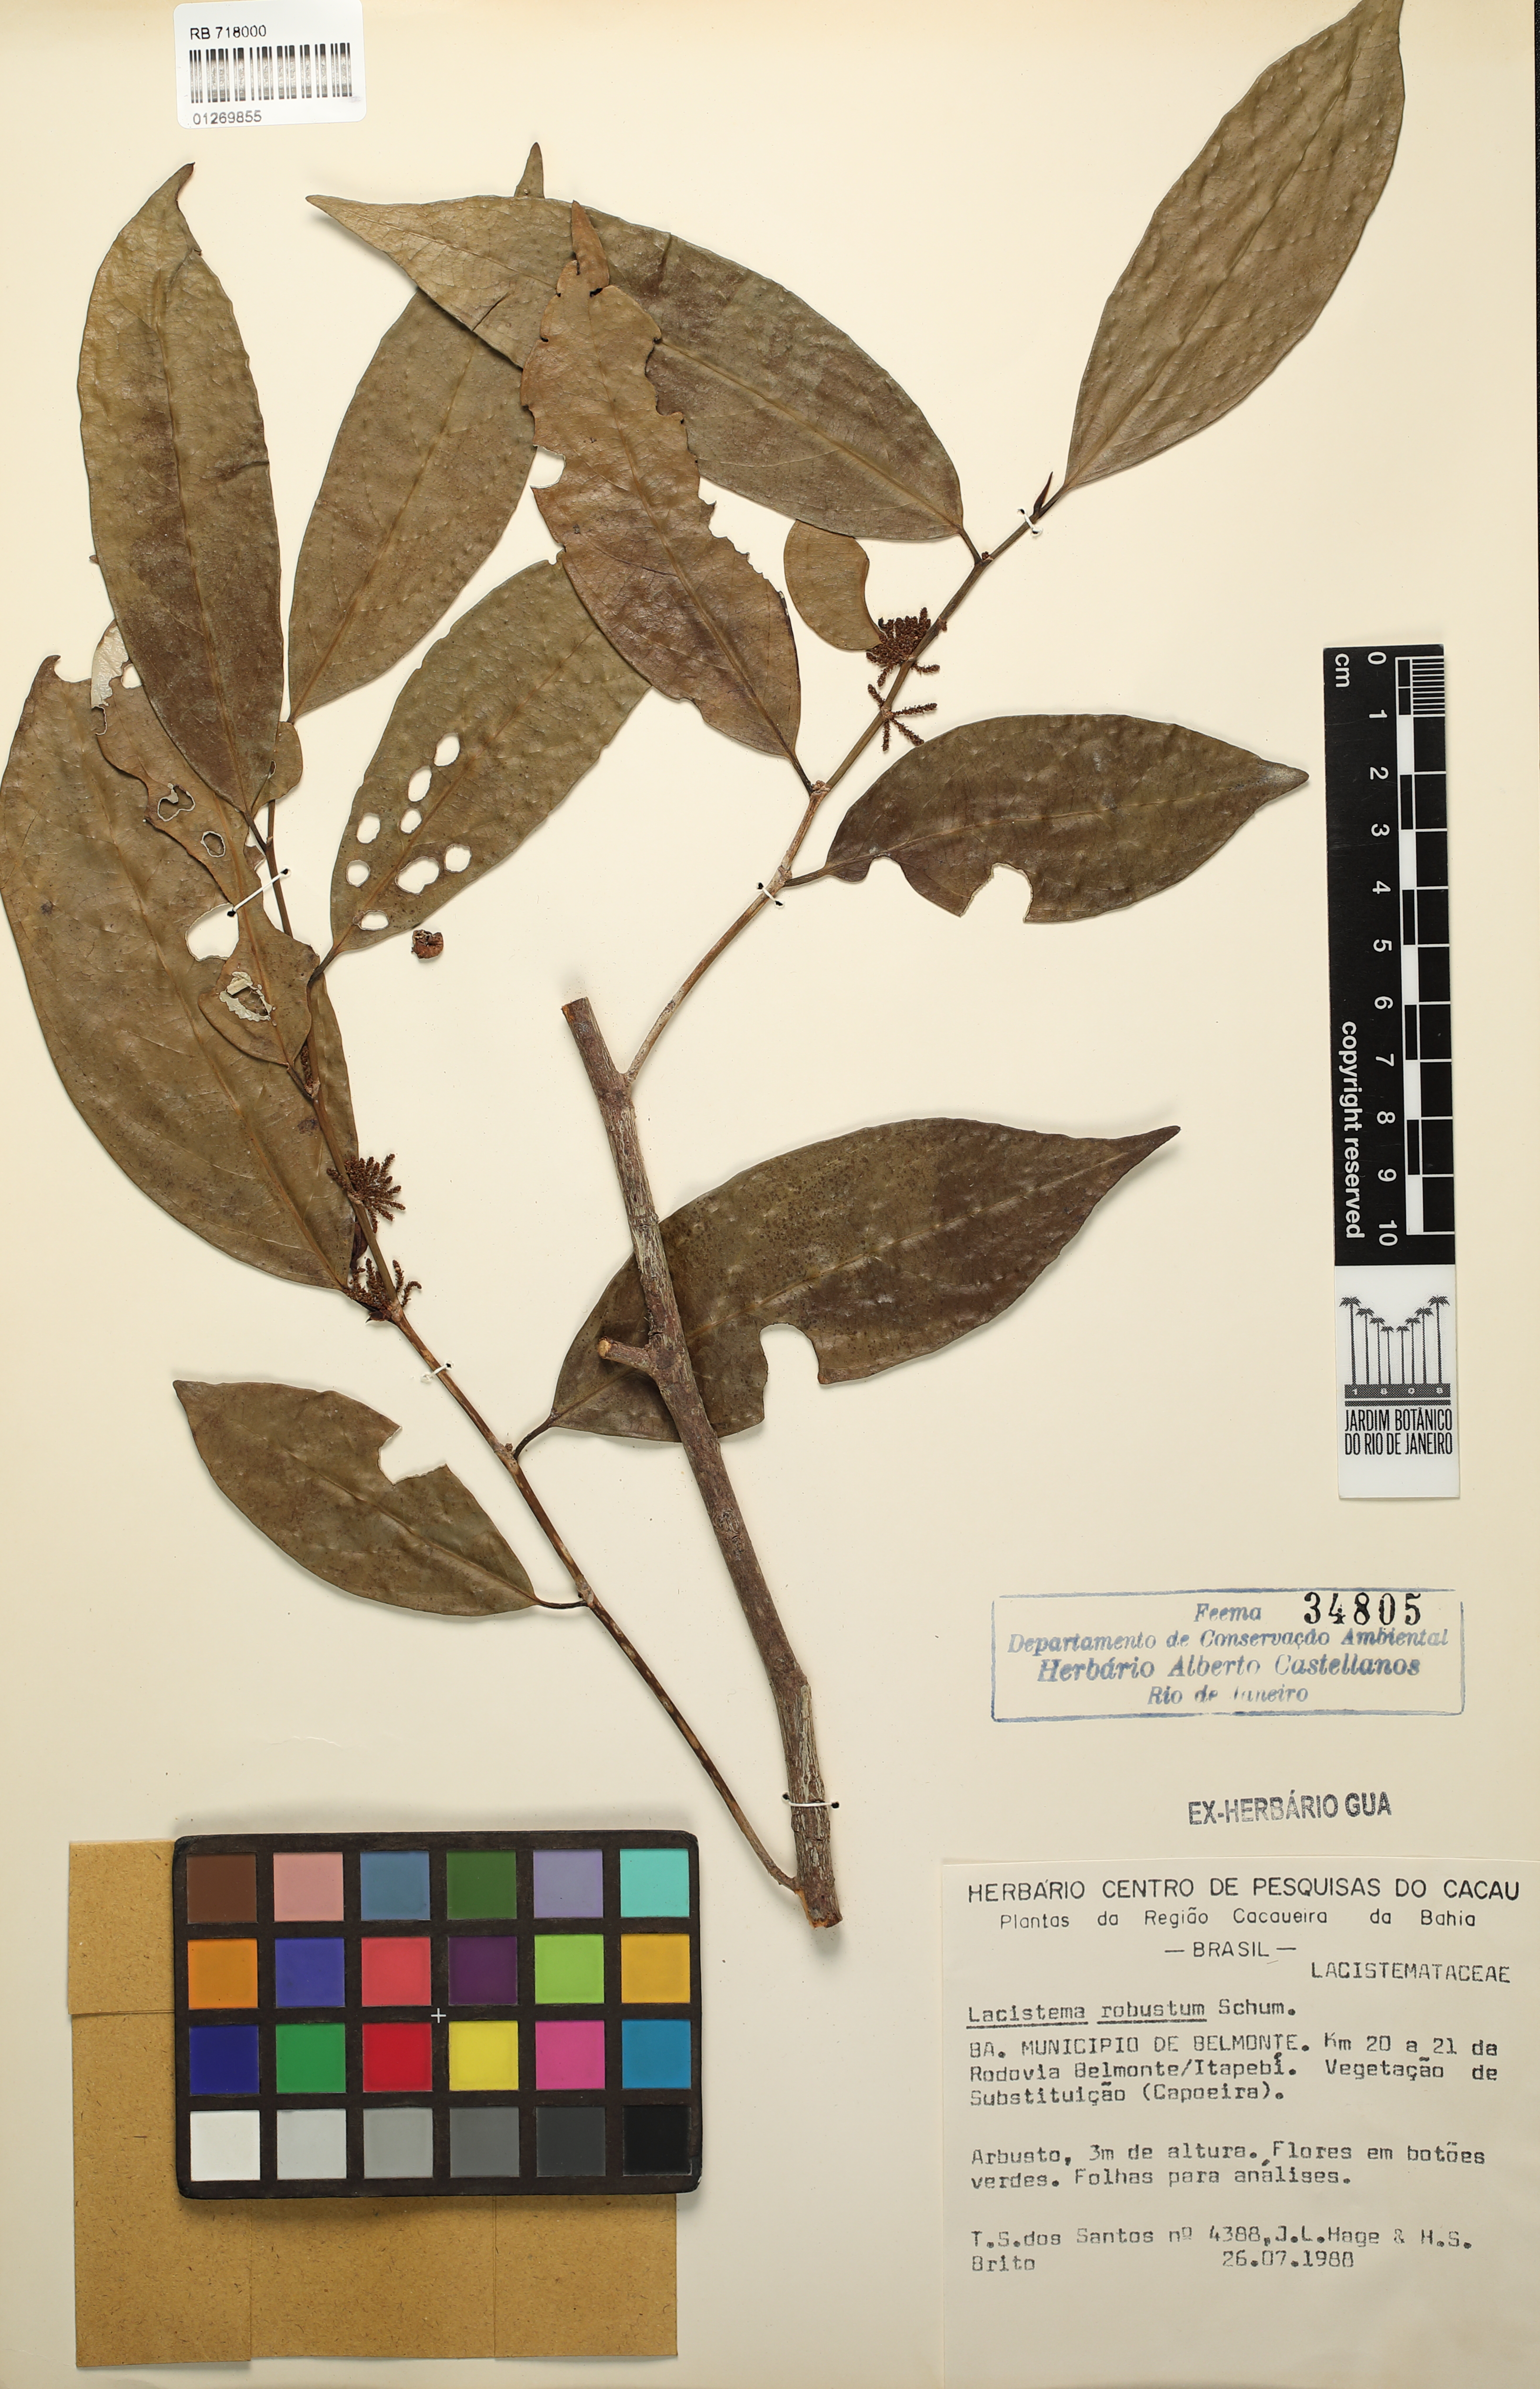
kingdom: Plantae
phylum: Tracheophyta
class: Magnoliopsida
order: Malpighiales
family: Lacistemataceae
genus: Lacistema
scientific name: Lacistema robustum
